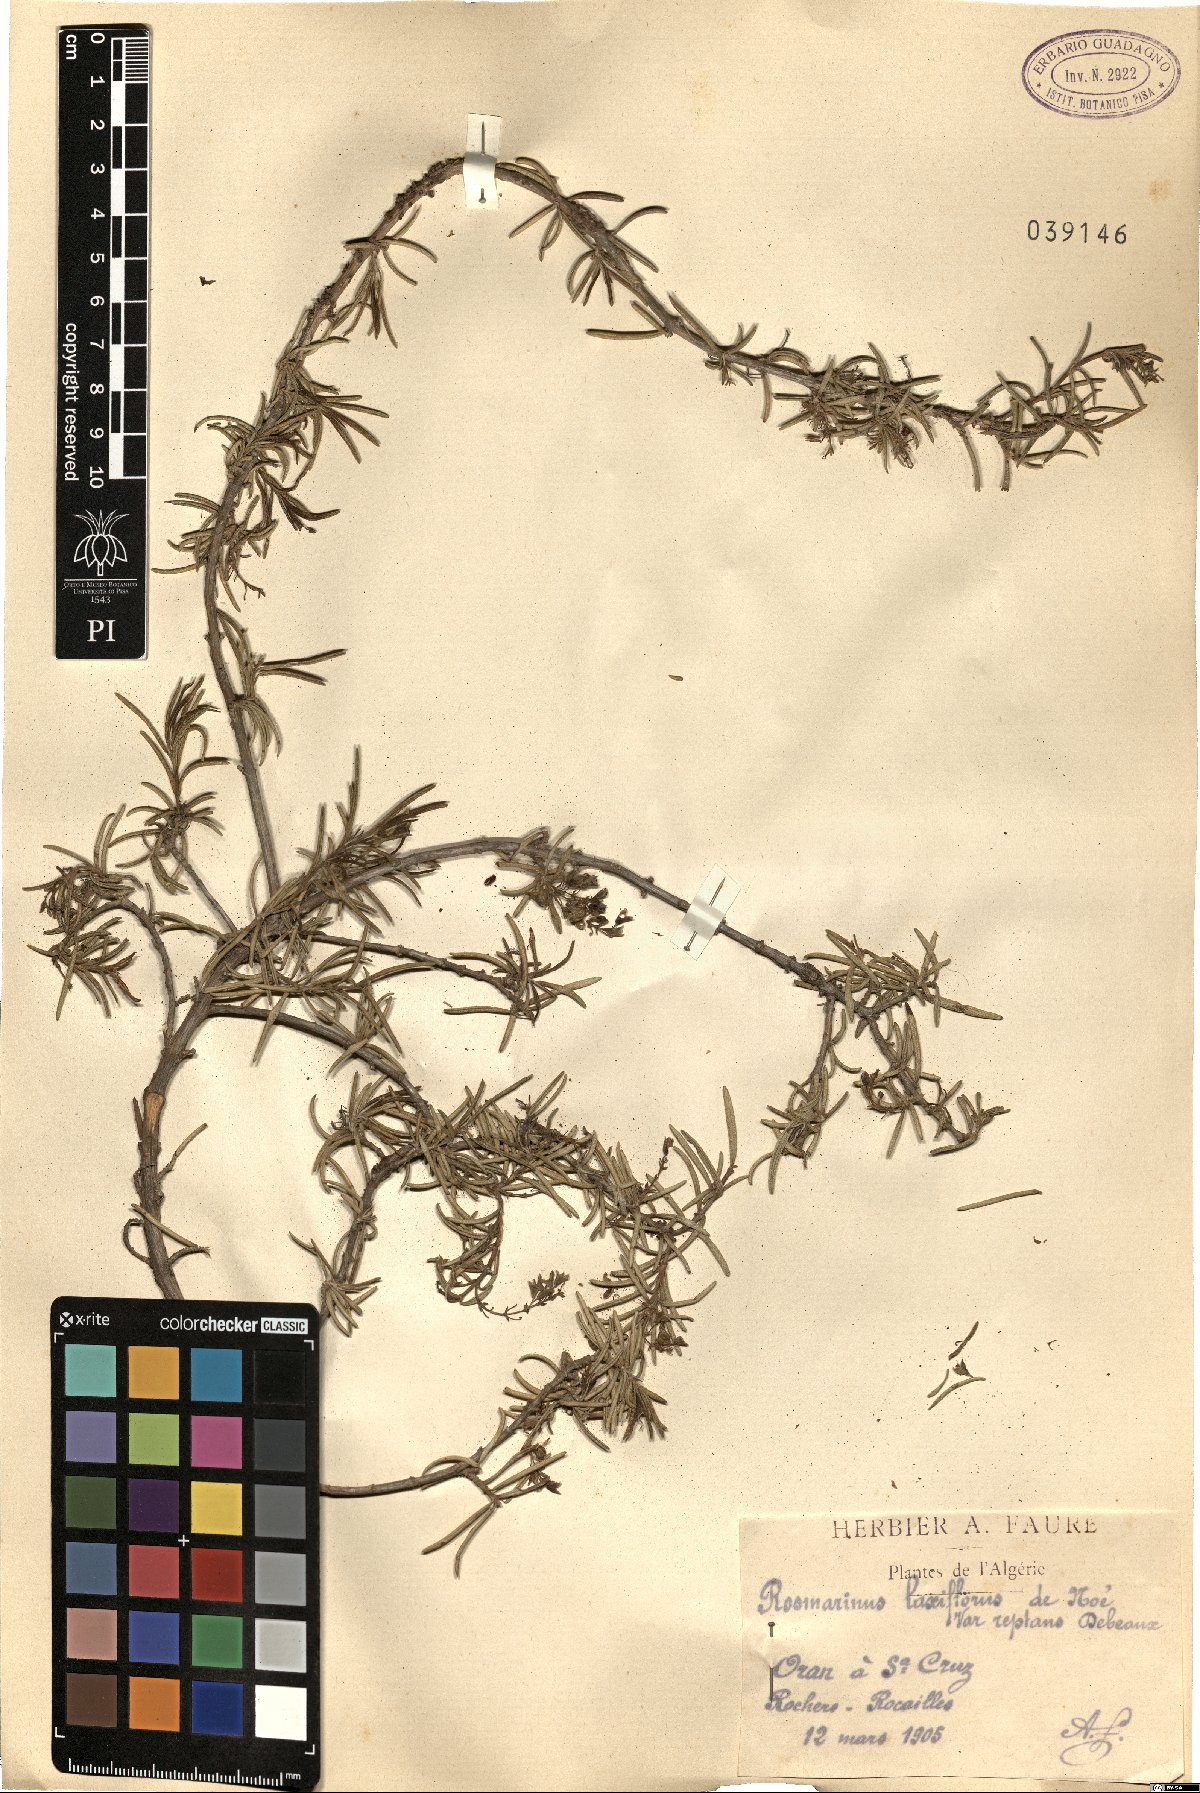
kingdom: Plantae
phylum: Tracheophyta
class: Magnoliopsida
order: Lamiales
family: Lamiaceae
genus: Salvia
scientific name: Salvia rosmarinus
